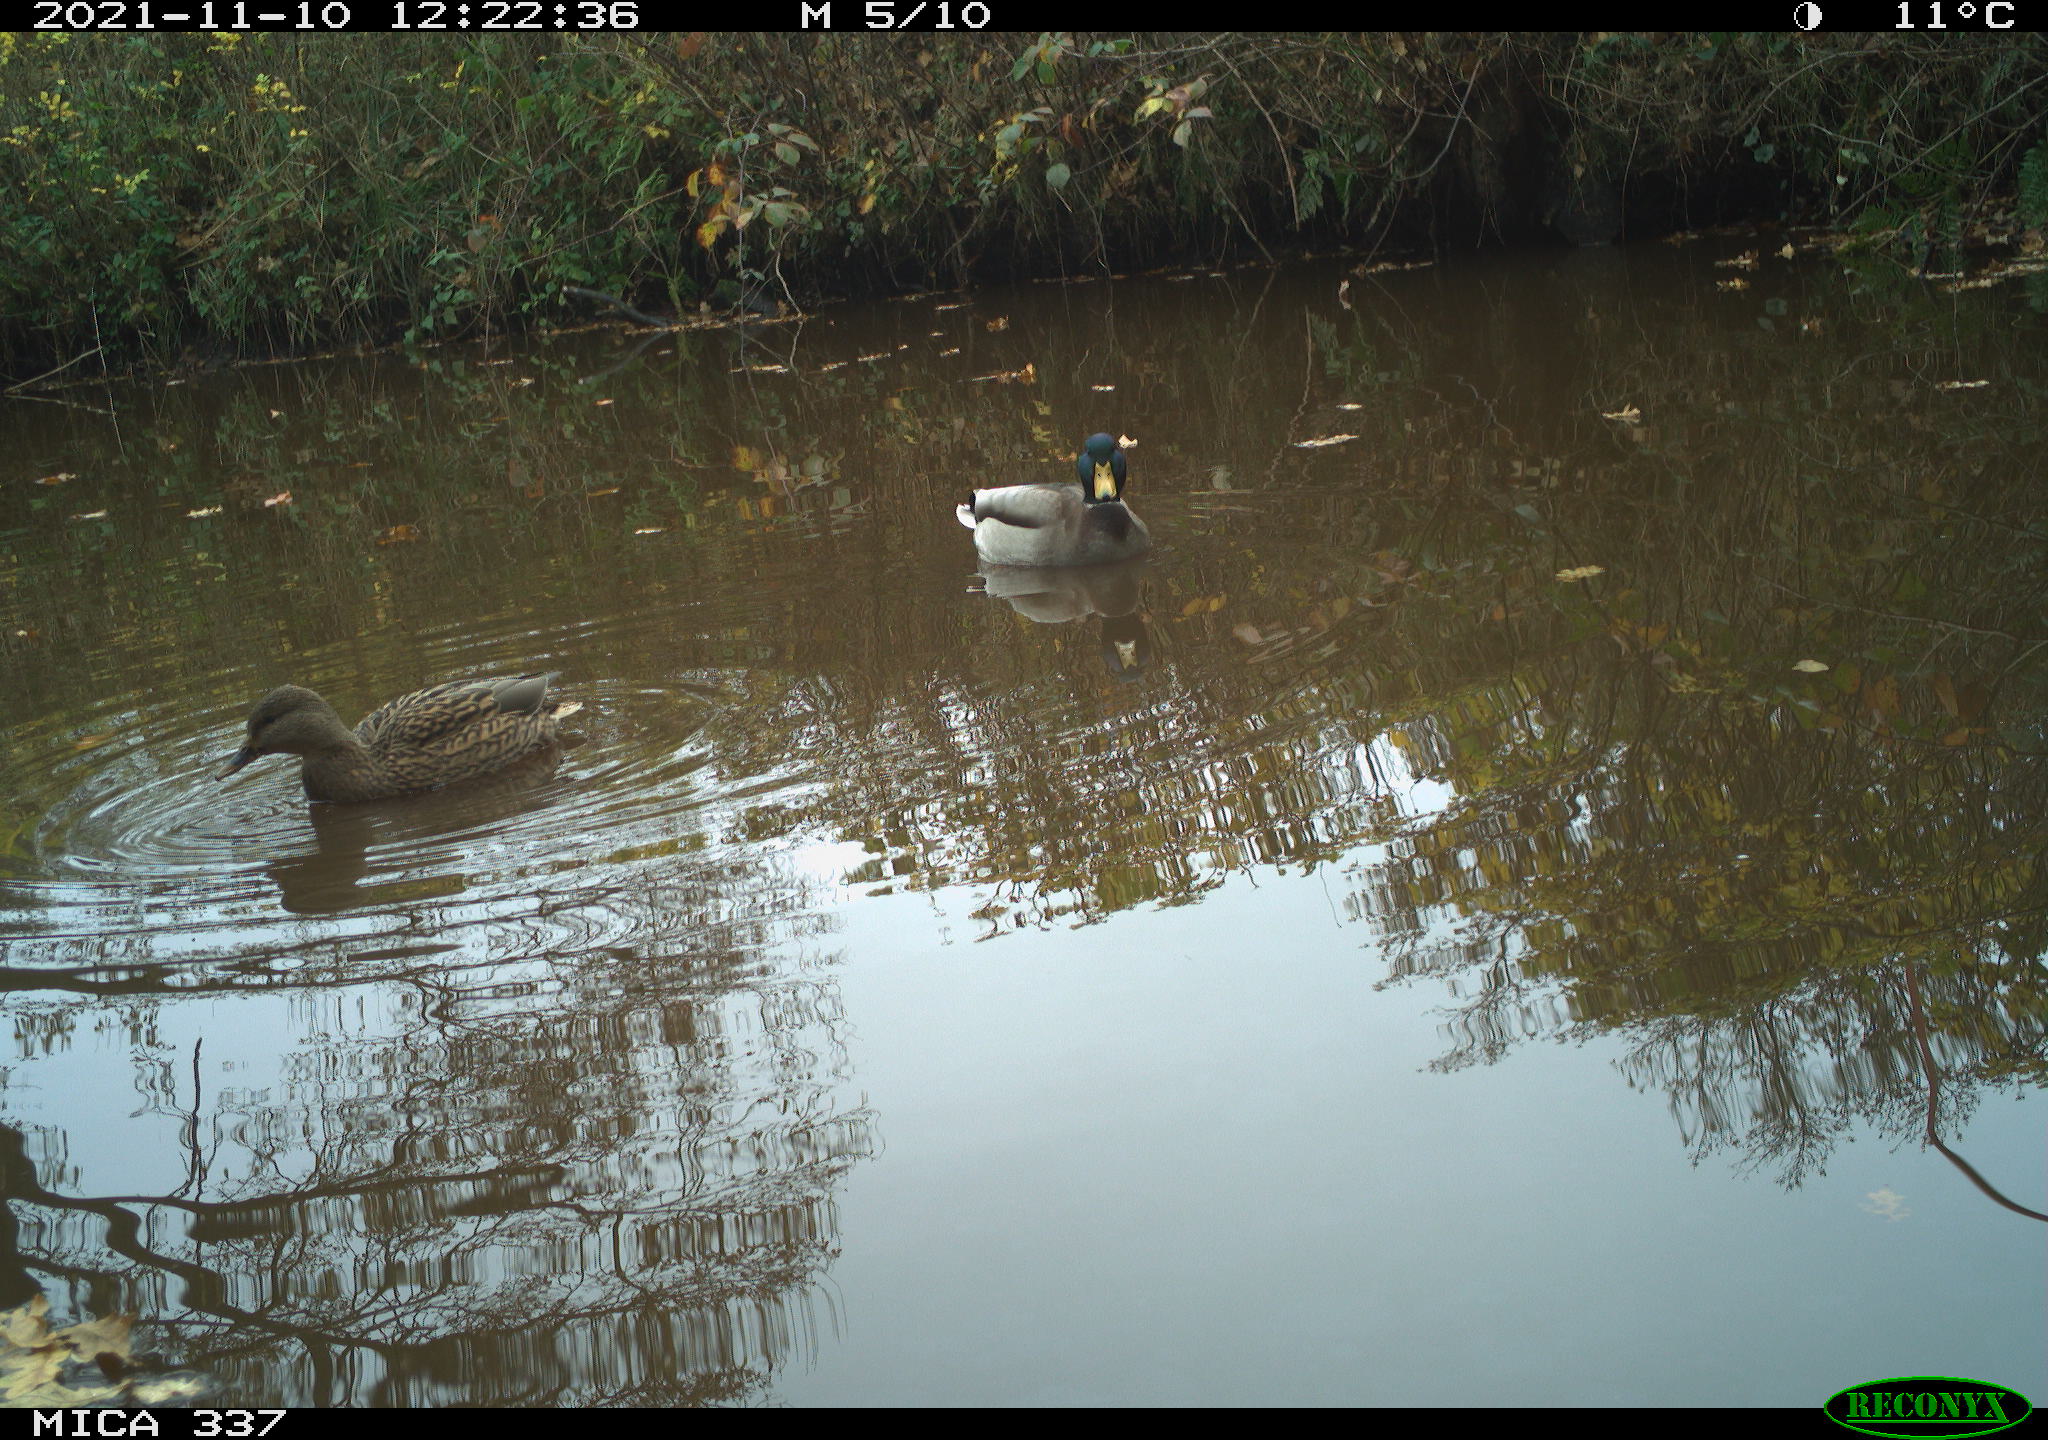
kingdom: Animalia
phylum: Chordata
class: Aves
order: Anseriformes
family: Anatidae
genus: Anas
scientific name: Anas platyrhynchos
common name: Mallard
